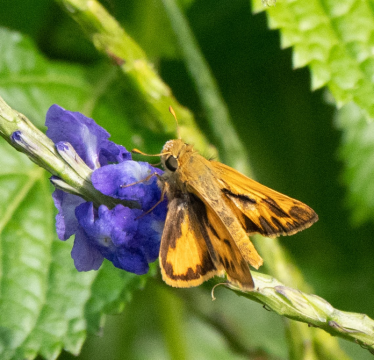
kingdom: Animalia
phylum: Arthropoda
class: Insecta
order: Lepidoptera
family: Hesperiidae
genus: Hylephila
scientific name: Hylephila phyleus
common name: Fiery Skipper
